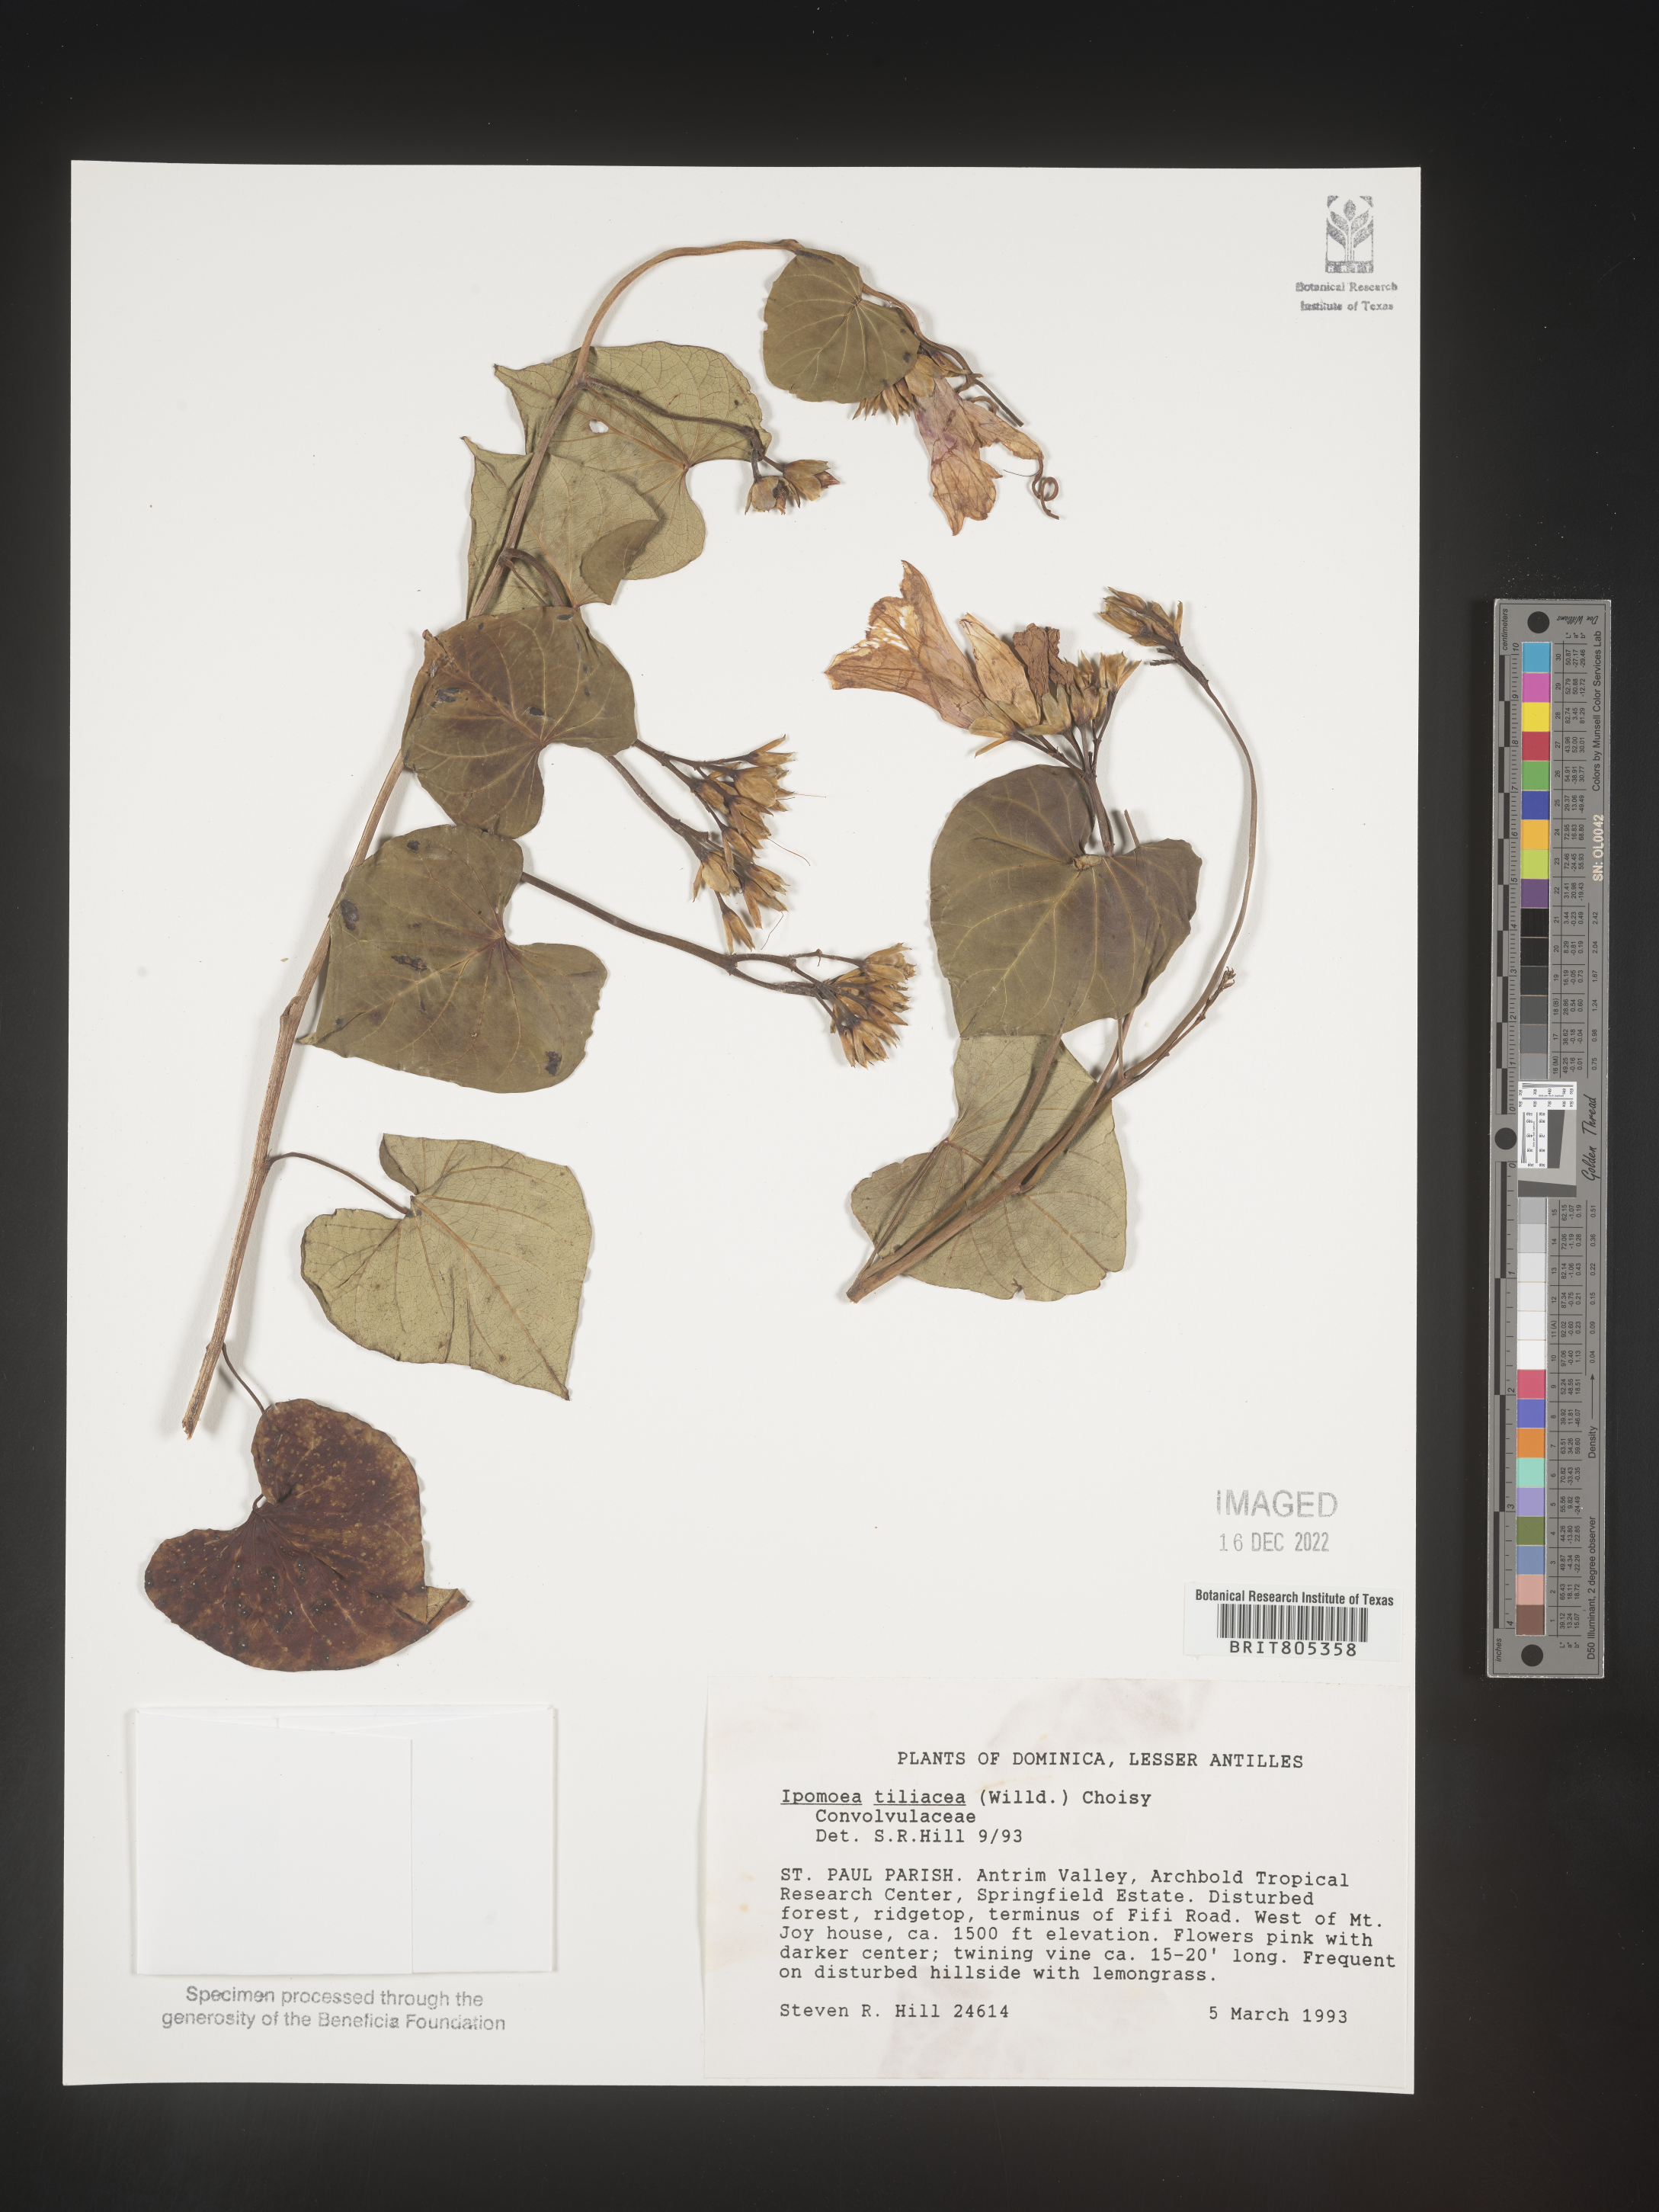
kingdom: Plantae
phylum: Tracheophyta
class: Magnoliopsida
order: Solanales
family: Convolvulaceae
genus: Ipomoea
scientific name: Ipomoea
